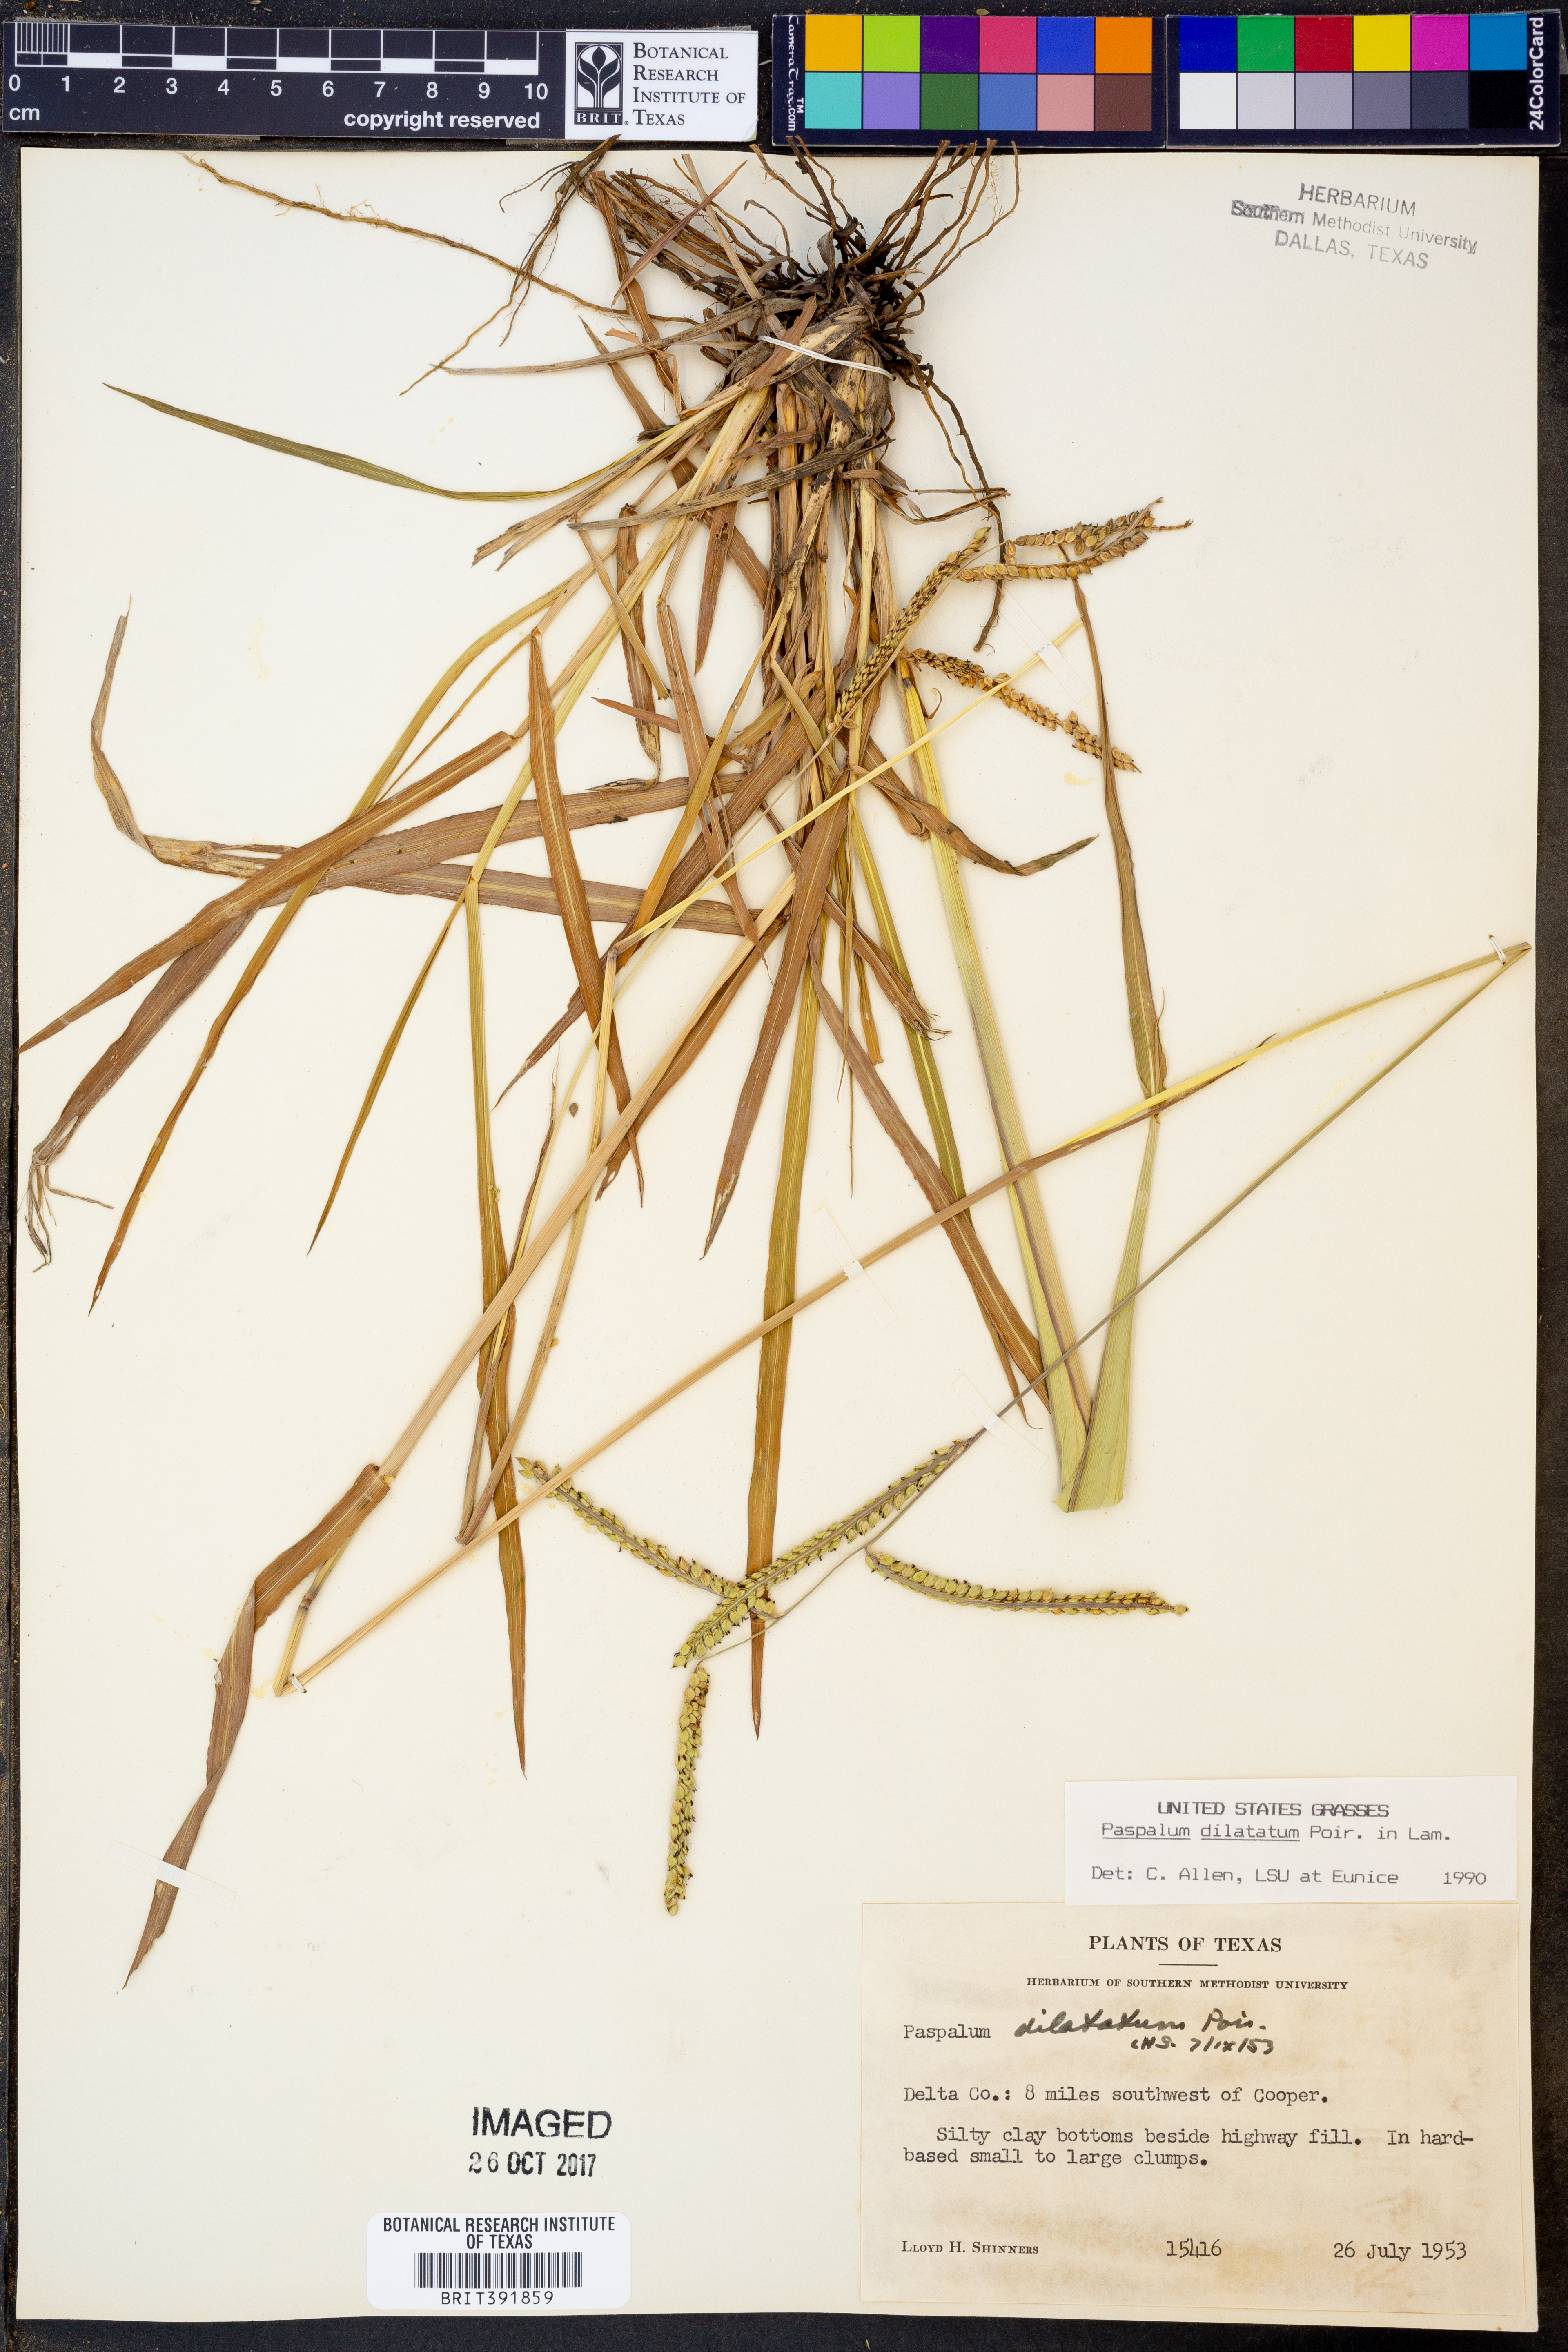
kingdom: Plantae
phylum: Tracheophyta
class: Liliopsida
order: Poales
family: Poaceae
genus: Paspalum
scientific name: Paspalum dilatatum
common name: Dallisgrass
